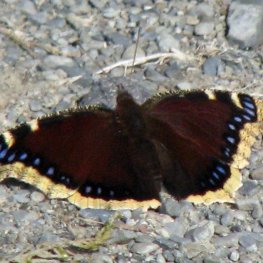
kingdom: Animalia
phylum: Arthropoda
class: Insecta
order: Lepidoptera
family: Nymphalidae
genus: Nymphalis
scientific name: Nymphalis antiopa
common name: Mourning Cloak
